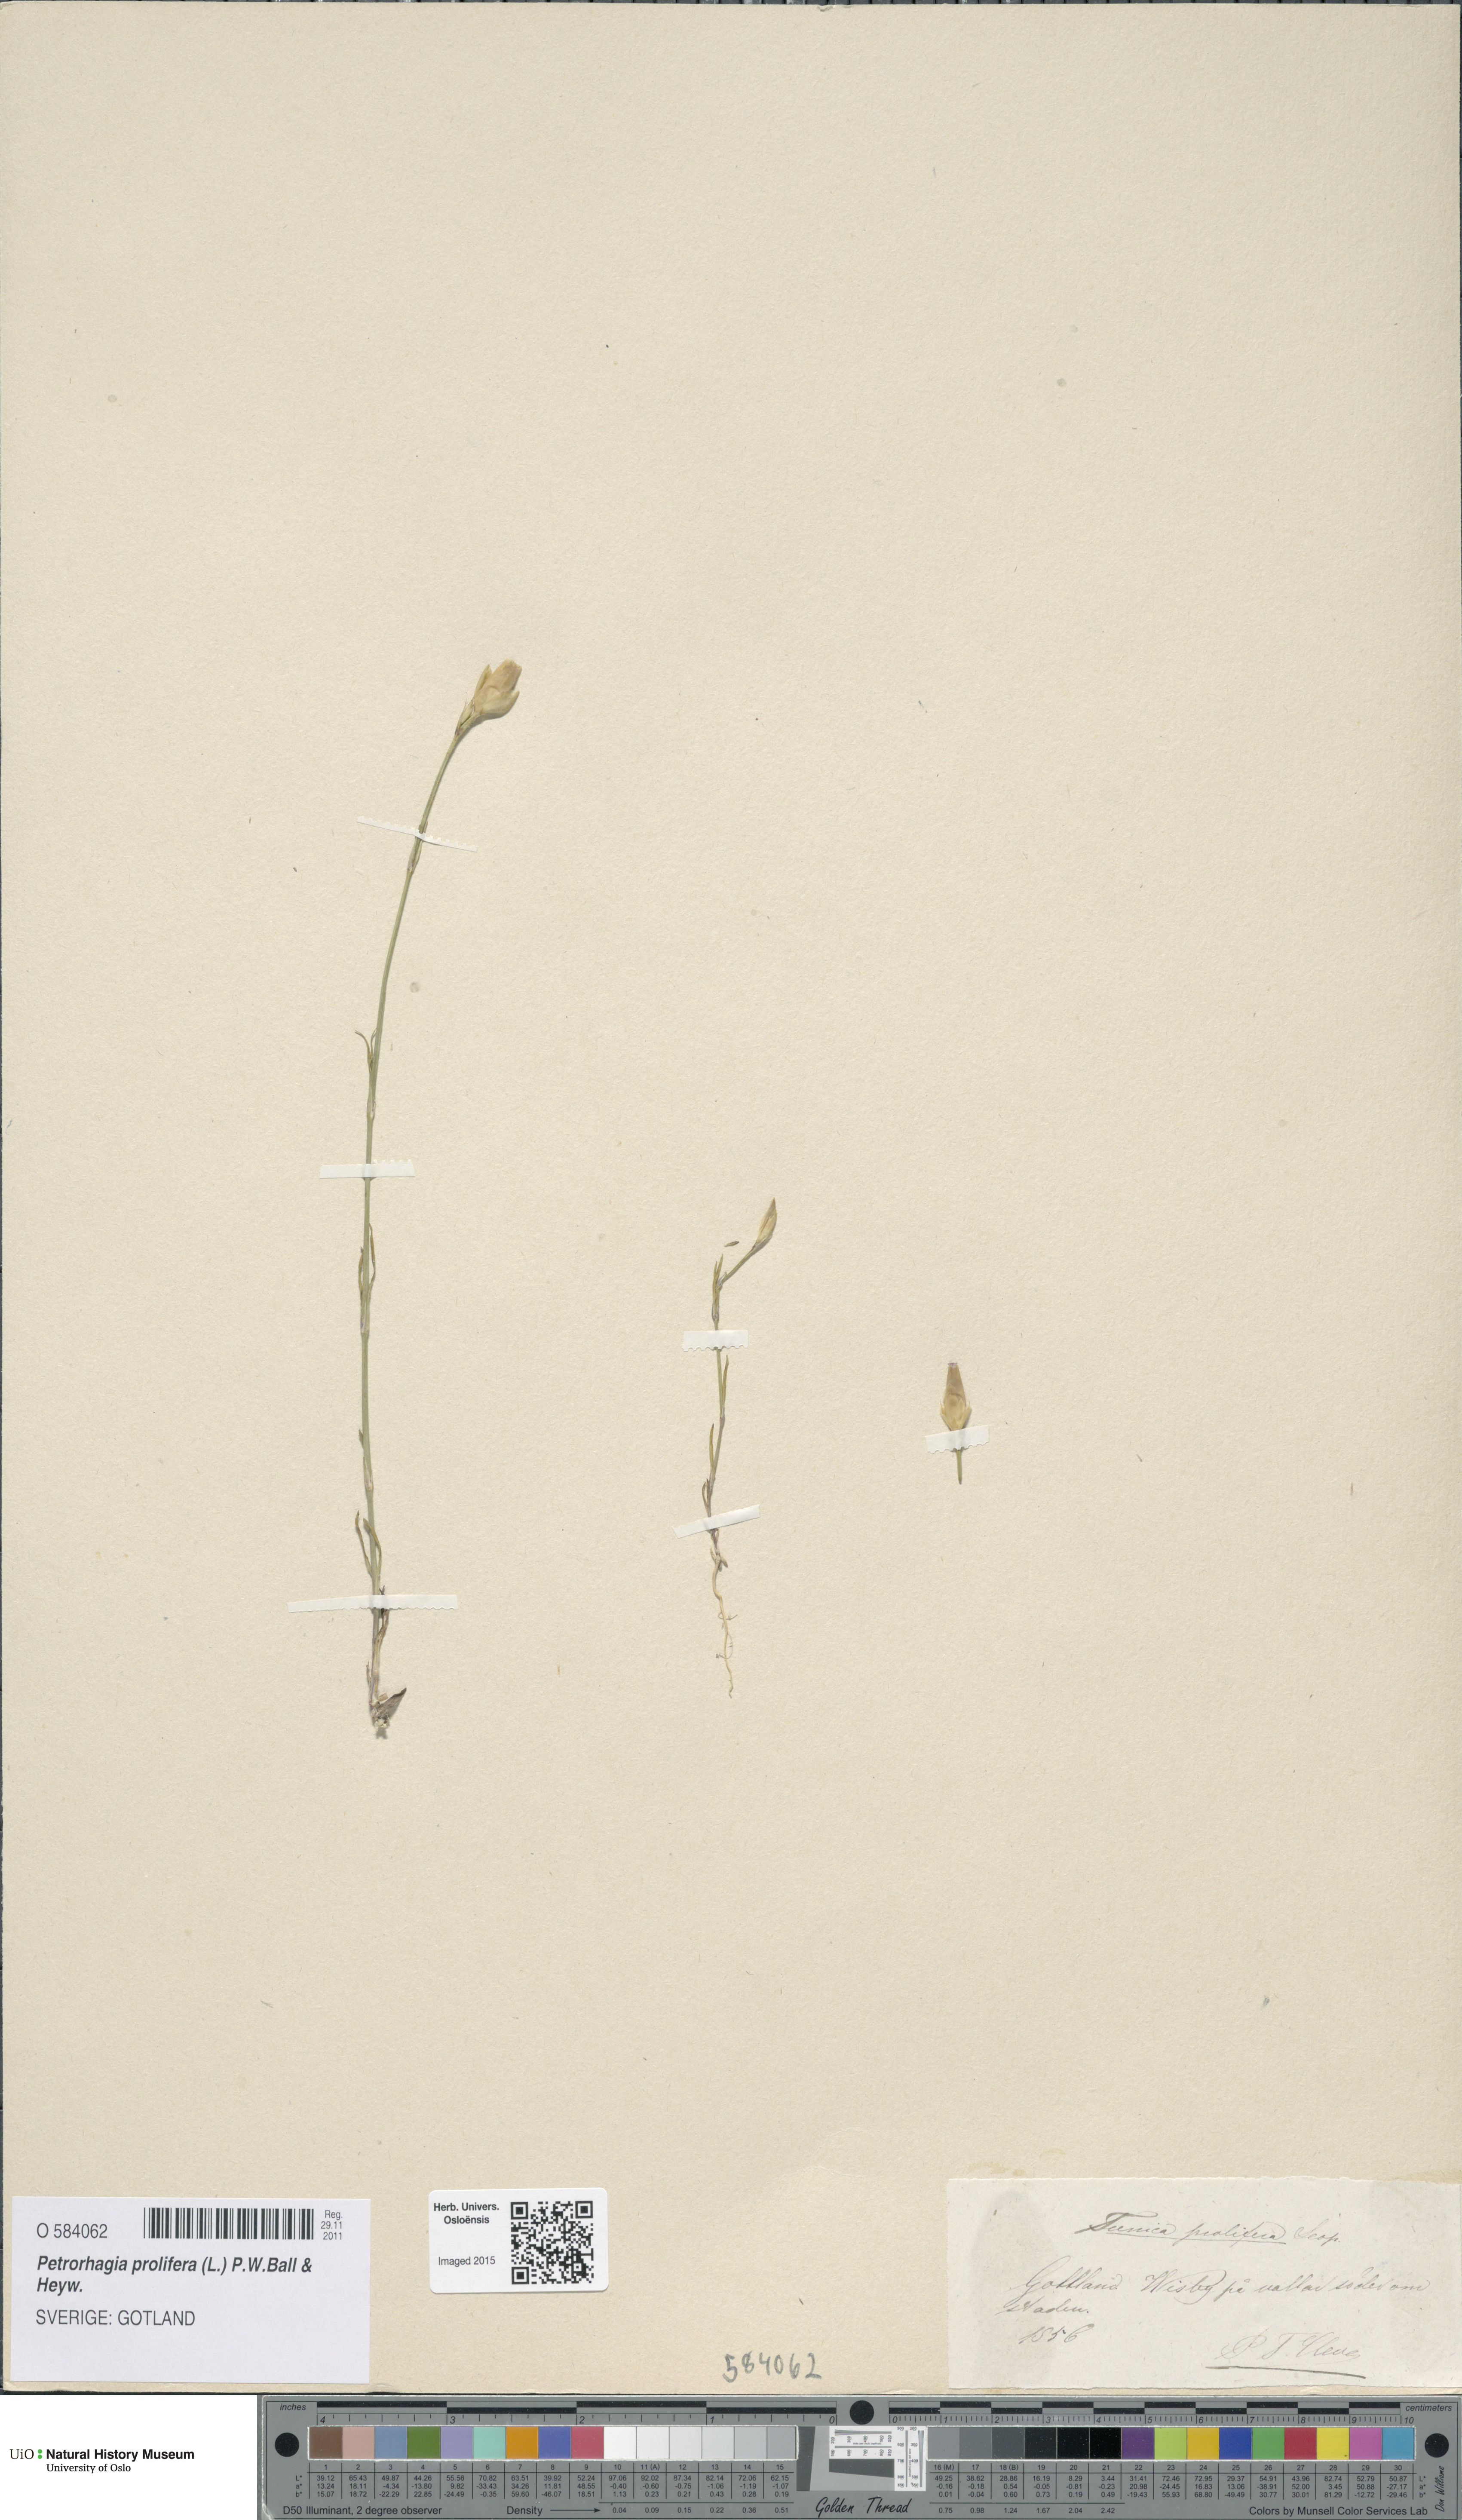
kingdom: Plantae
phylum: Tracheophyta
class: Magnoliopsida
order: Caryophyllales
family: Caryophyllaceae
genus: Petrorhagia
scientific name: Petrorhagia prolifera
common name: Proliferous pink
